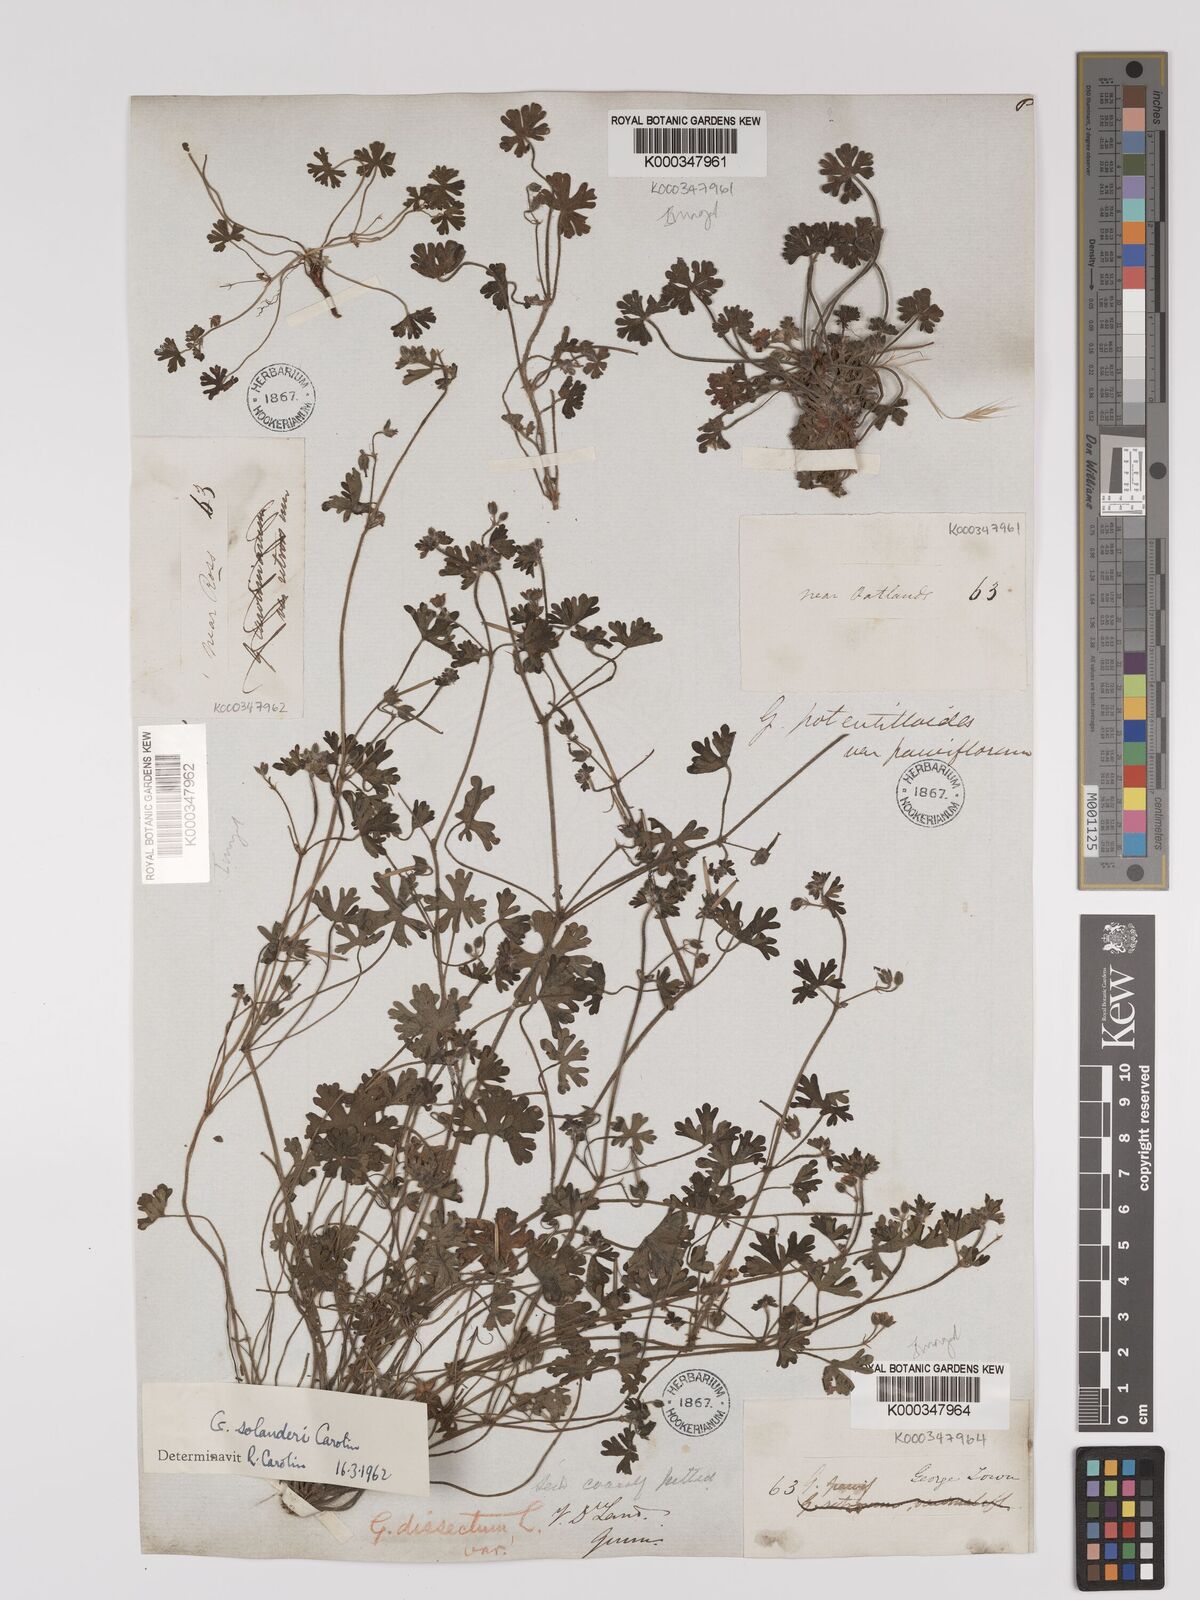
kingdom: Plantae
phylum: Tracheophyta
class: Magnoliopsida
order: Geraniales
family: Geraniaceae
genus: Geranium
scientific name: Geranium solanderi
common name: Solander's geranium
